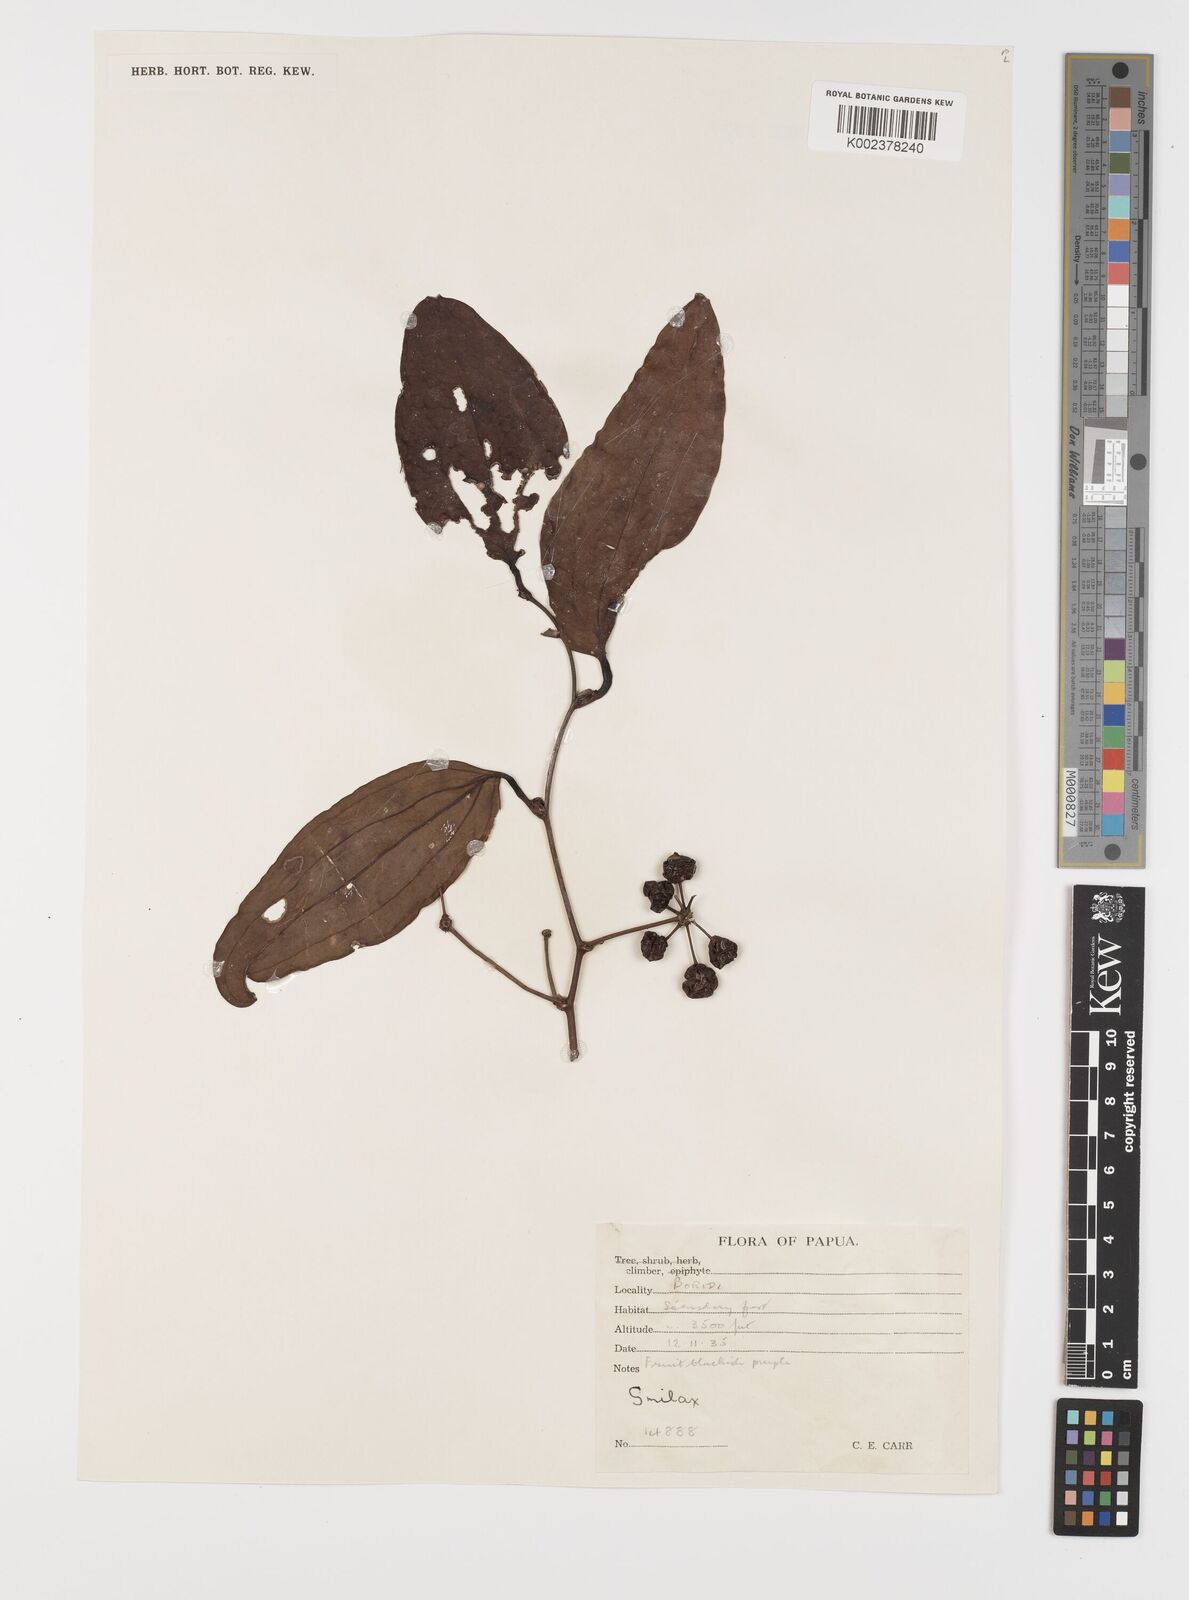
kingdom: Plantae
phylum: Tracheophyta
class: Liliopsida
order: Liliales
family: Smilacaceae
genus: Smilax
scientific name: Smilax
